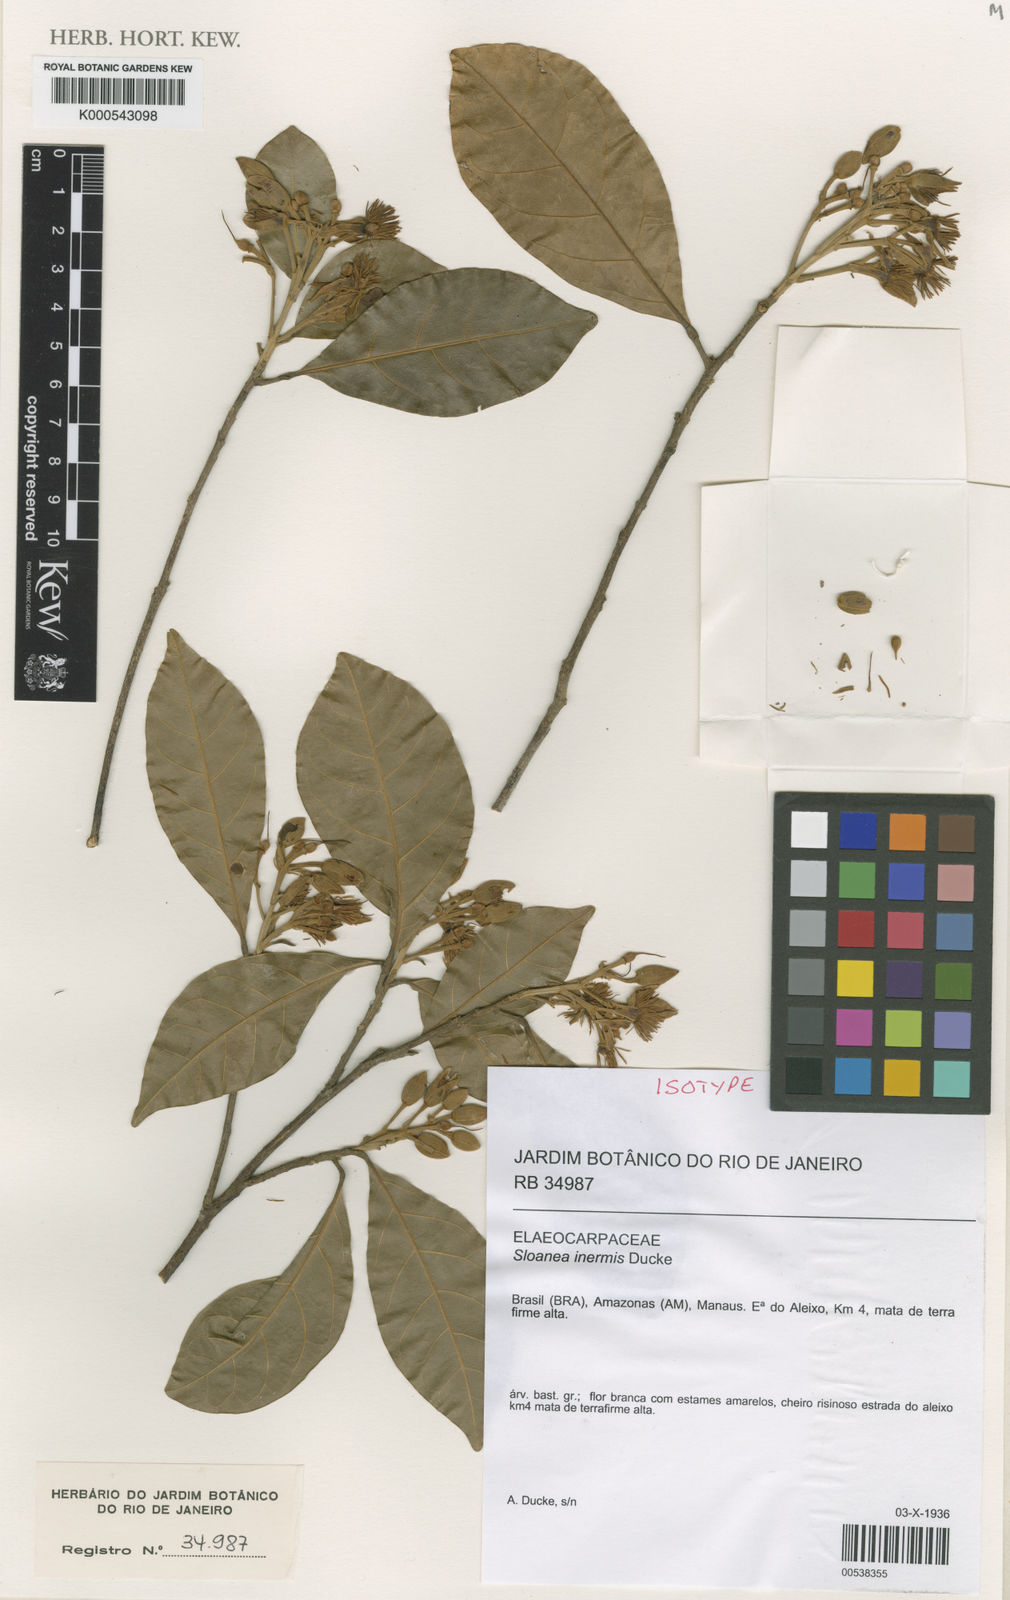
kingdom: Plantae
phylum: Tracheophyta
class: Magnoliopsida
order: Oxalidales
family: Elaeocarpaceae
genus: Sloanea
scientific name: Sloanea
